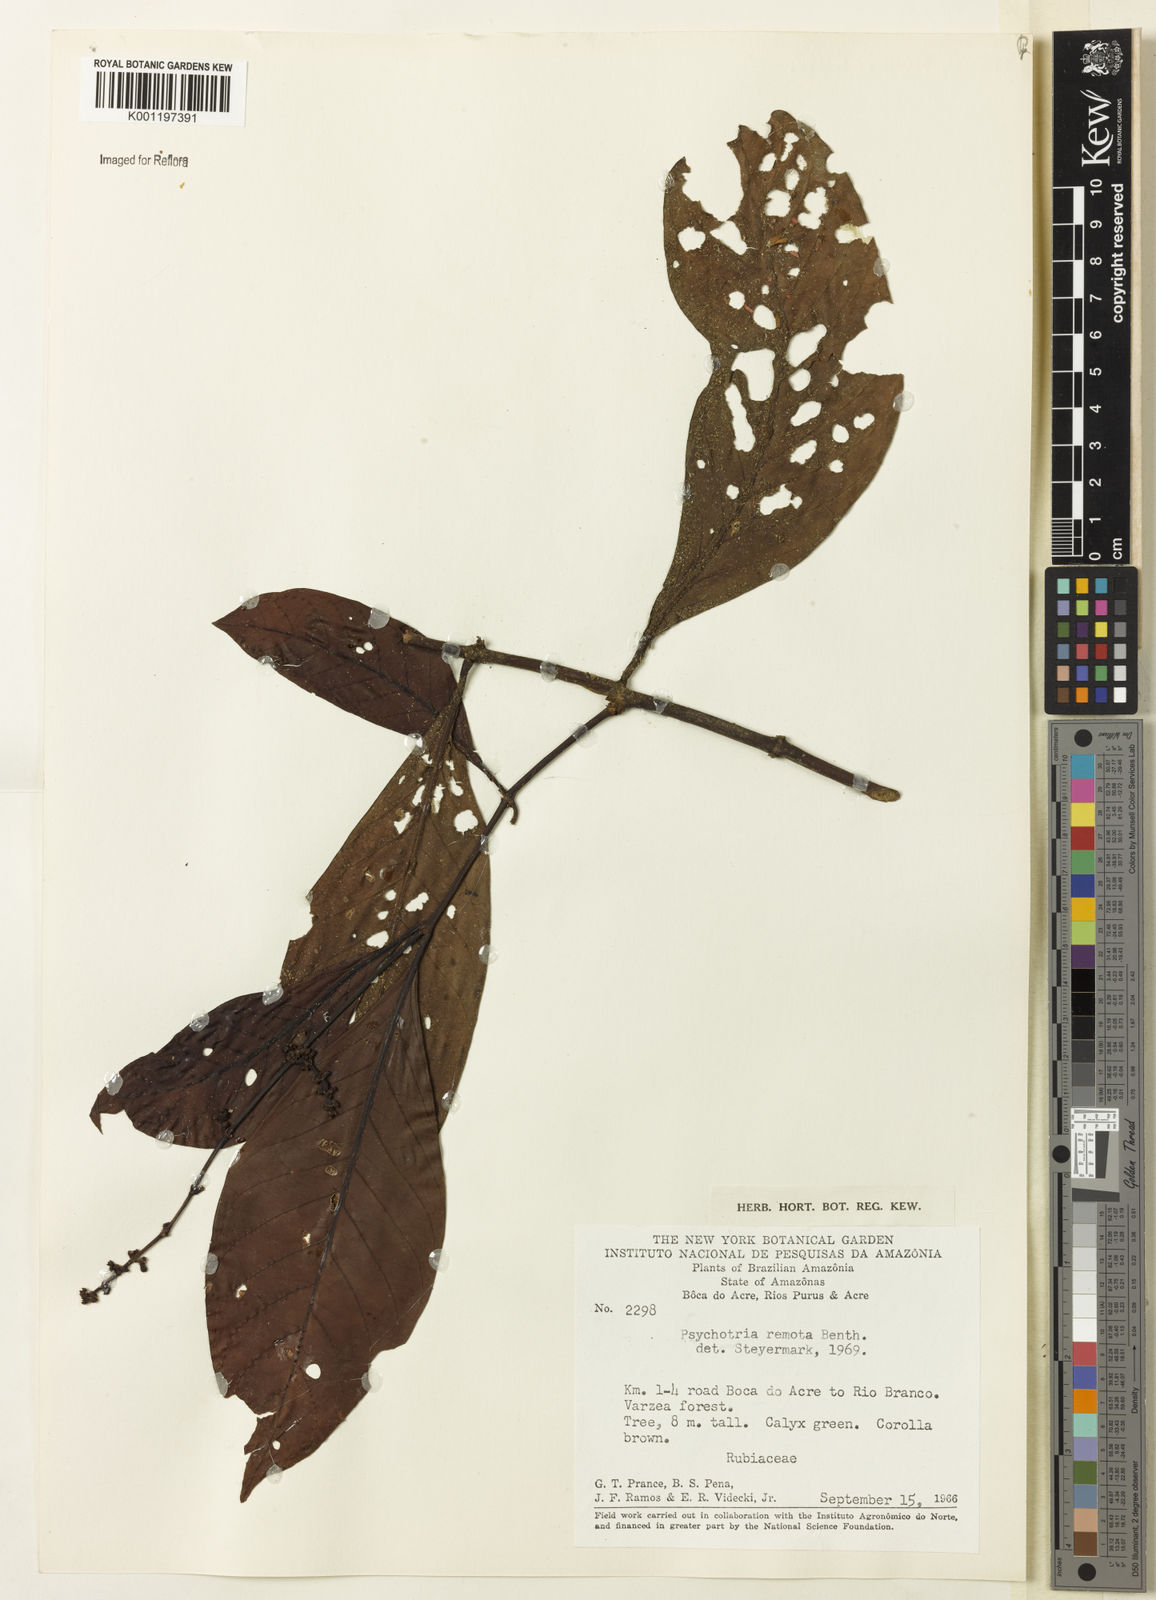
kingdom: Plantae
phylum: Tracheophyta
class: Magnoliopsida
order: Gentianales
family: Rubiaceae
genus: Psychotria
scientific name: Psychotria remota
